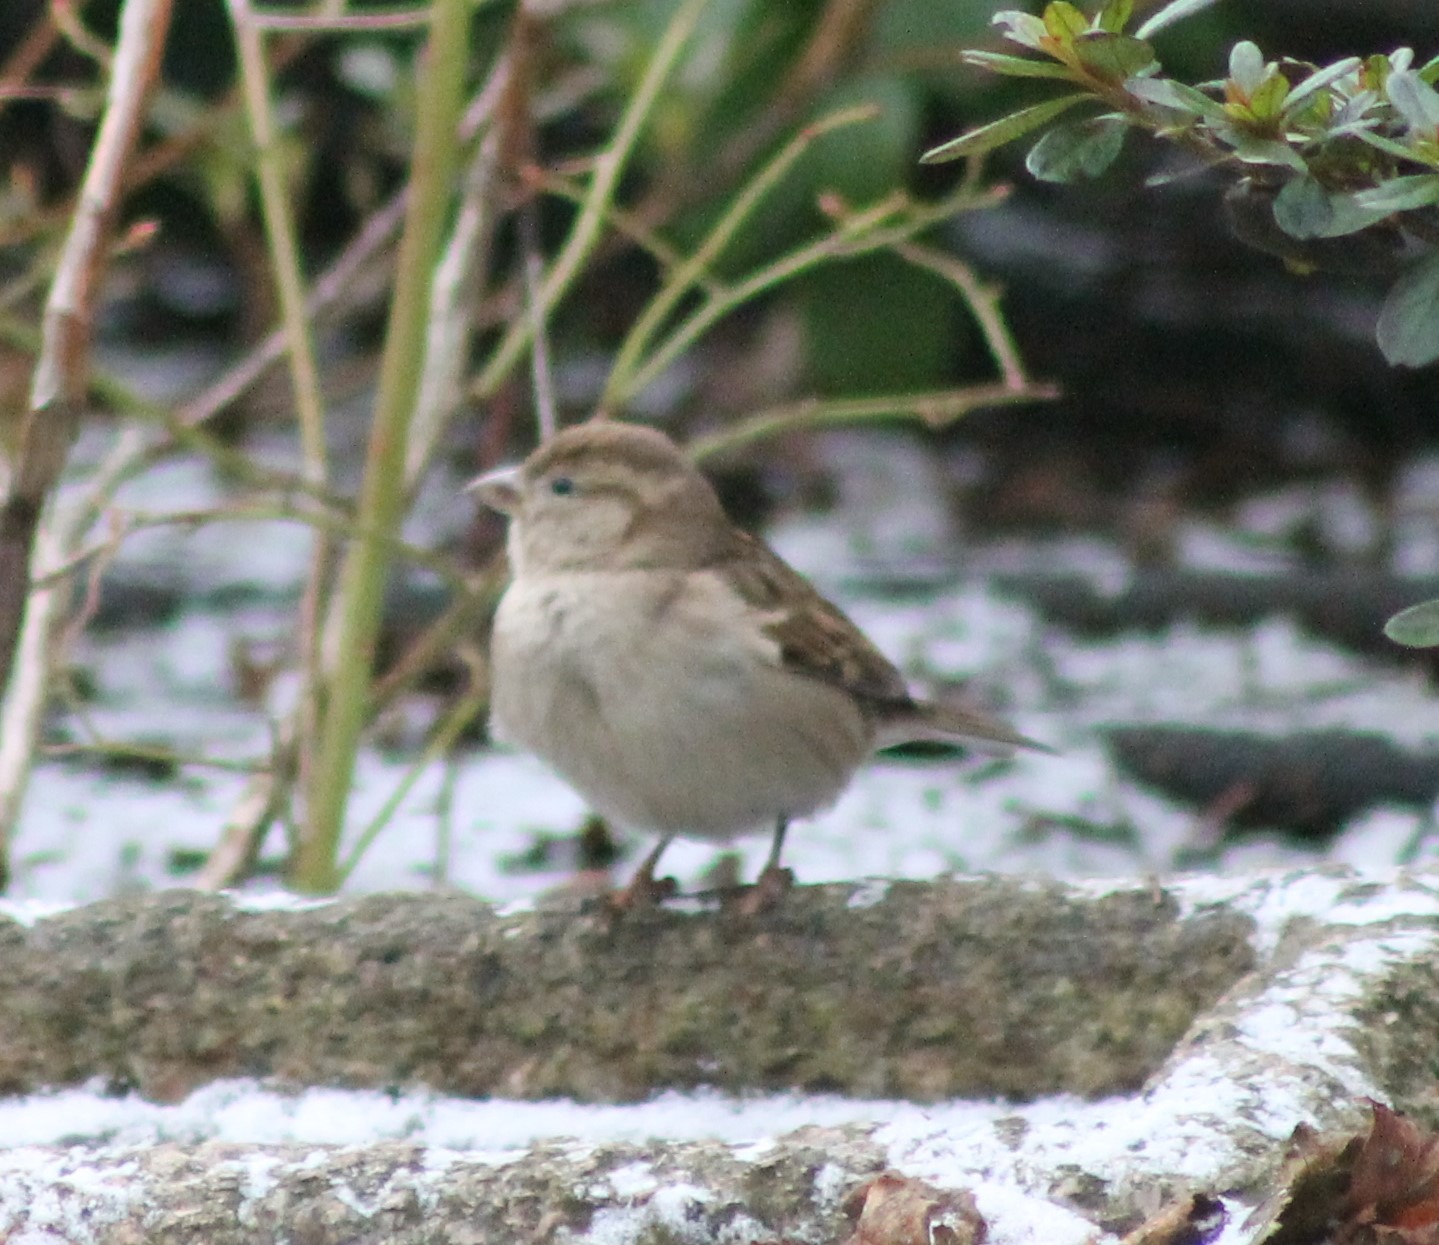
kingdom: Animalia
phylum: Chordata
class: Aves
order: Passeriformes
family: Passeridae
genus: Passer
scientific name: Passer domesticus
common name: Gråspurv
